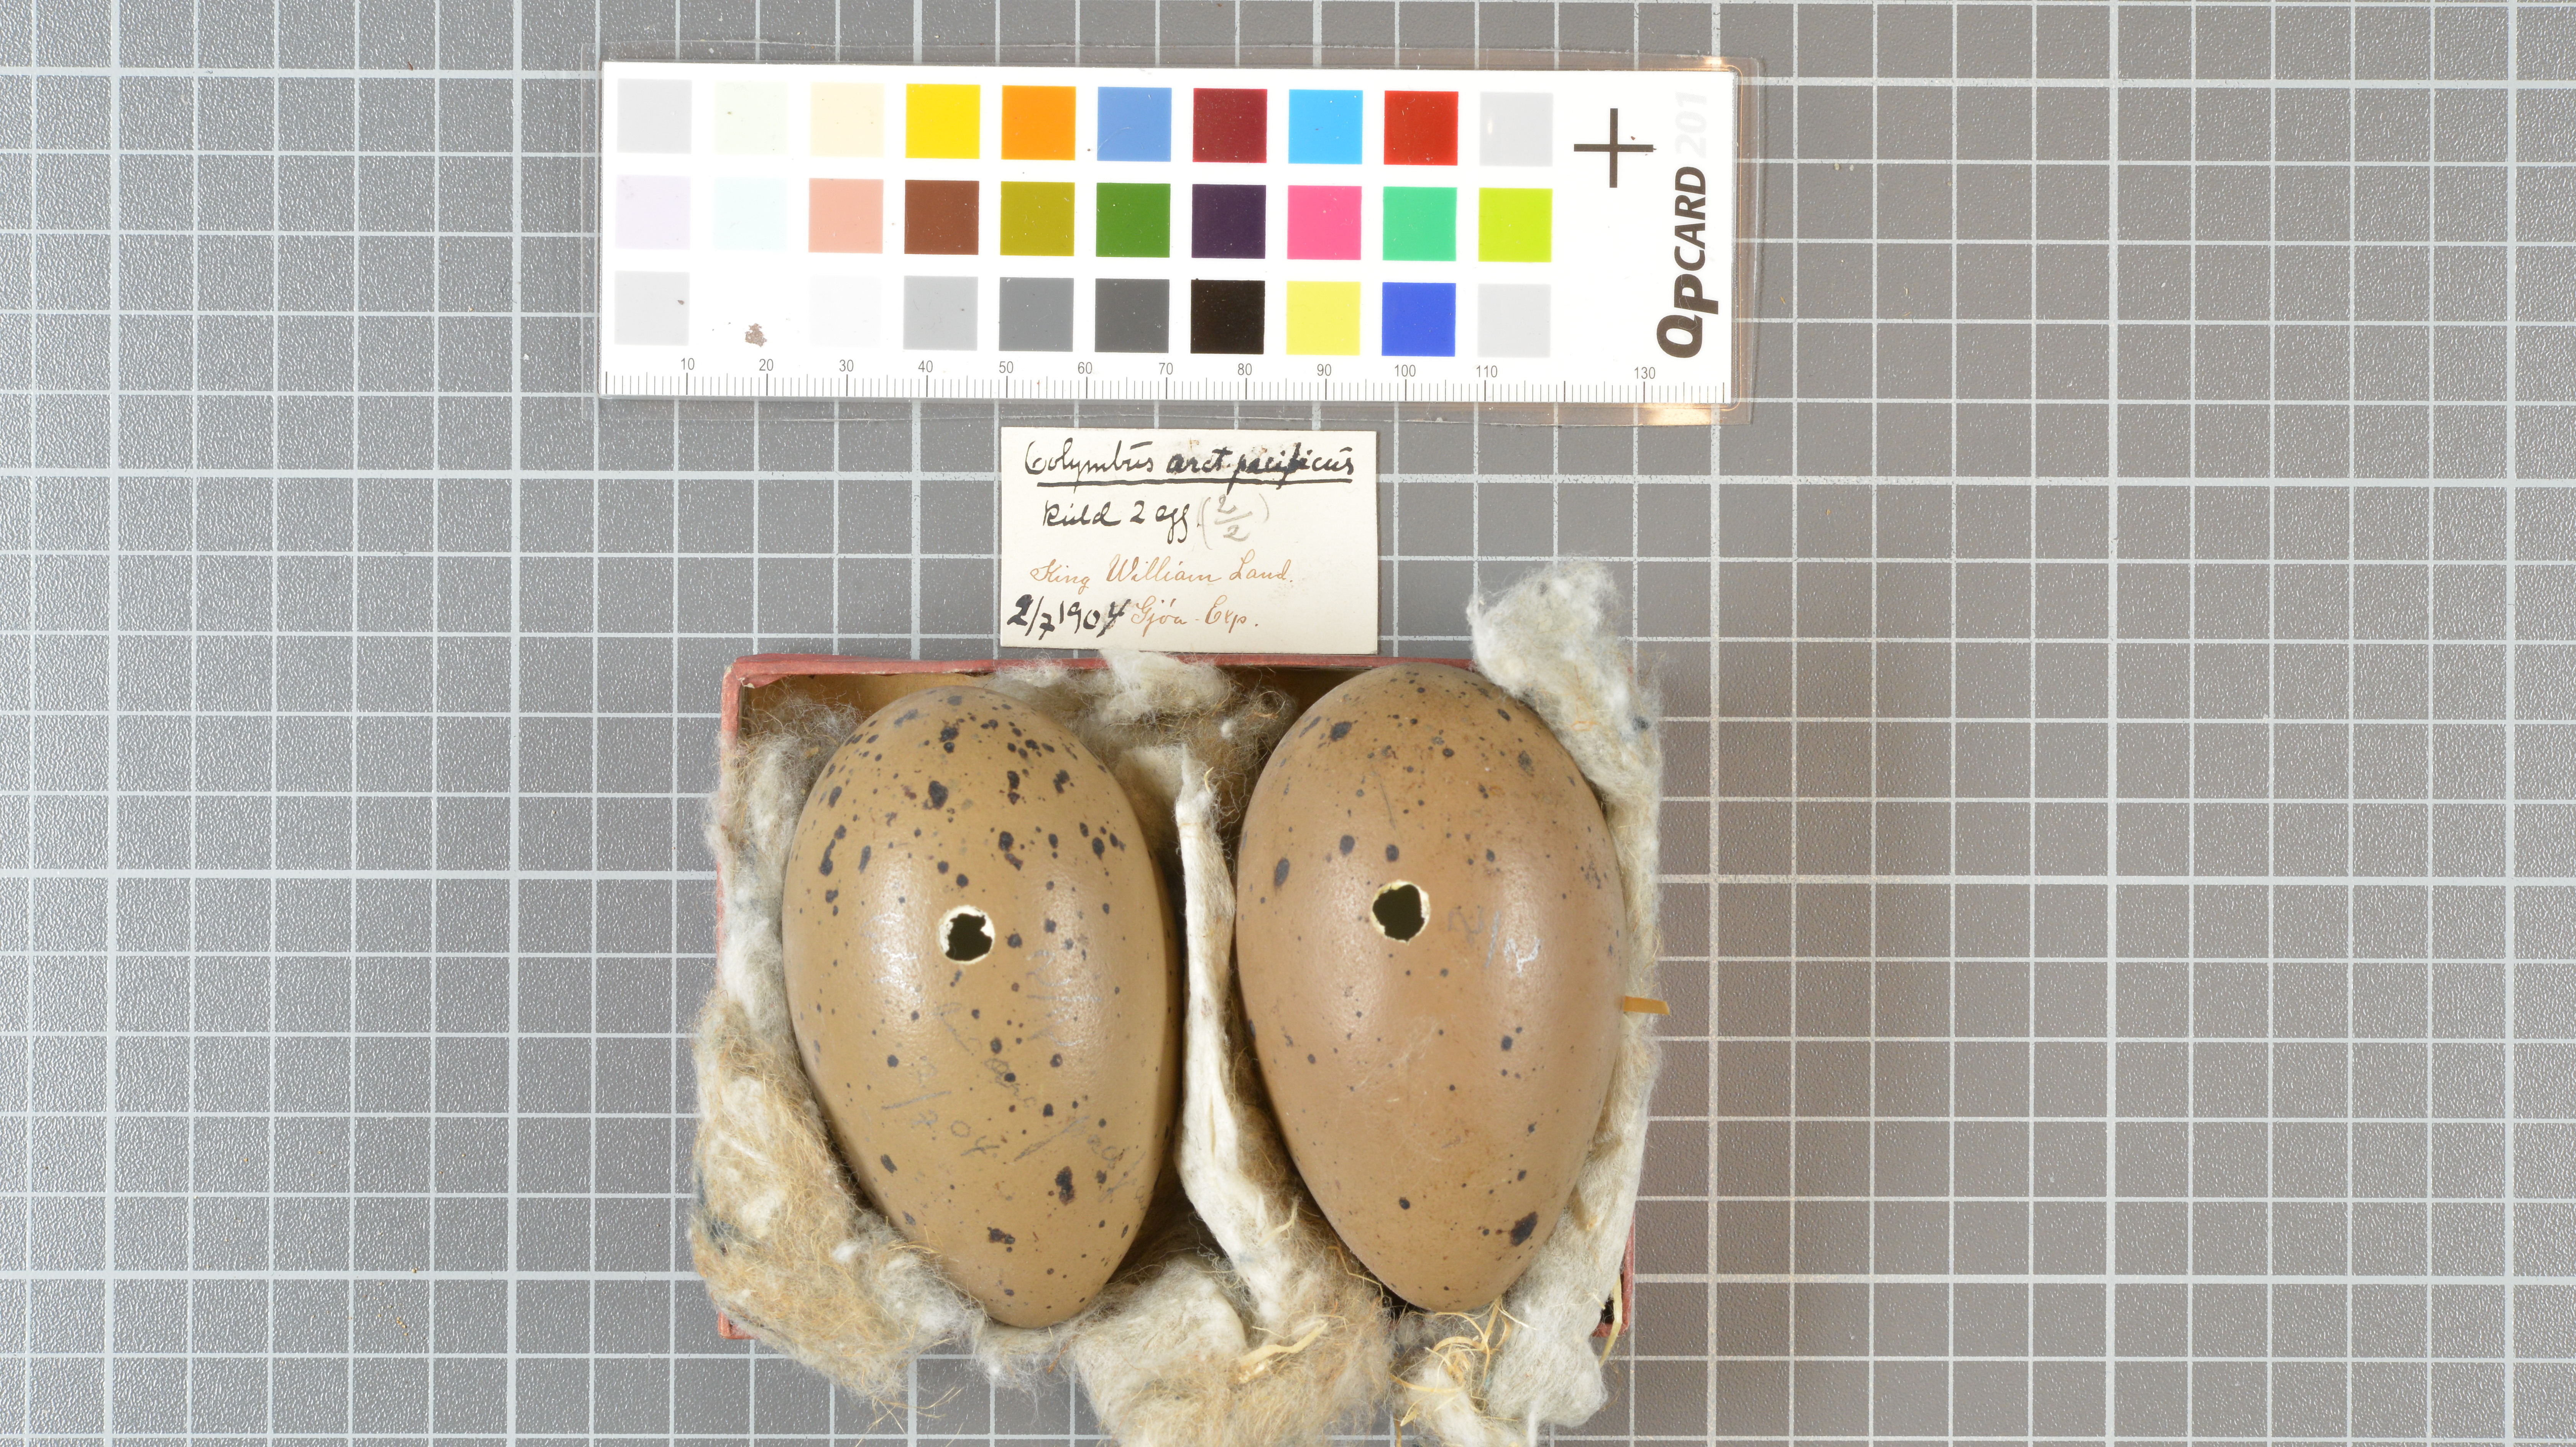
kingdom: Animalia
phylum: Chordata
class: Aves
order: Gaviiformes
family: Gaviidae
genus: Gavia
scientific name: Gavia pacifica
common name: Pacific loon
